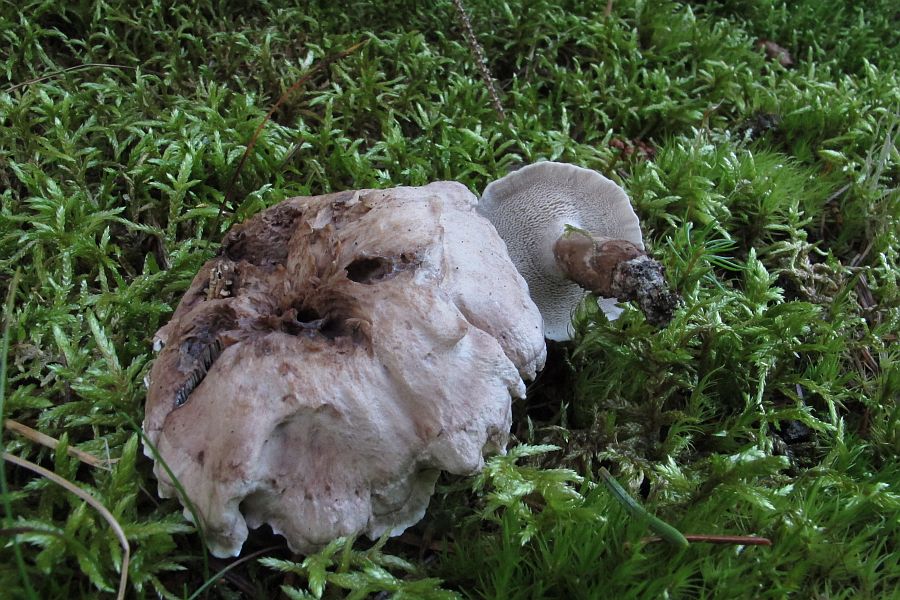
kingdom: Fungi
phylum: Basidiomycota
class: Agaricomycetes
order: Thelephorales
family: Thelephoraceae
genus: Phellodon
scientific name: Phellodon violascens
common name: violetbrun duftpigsvamp
